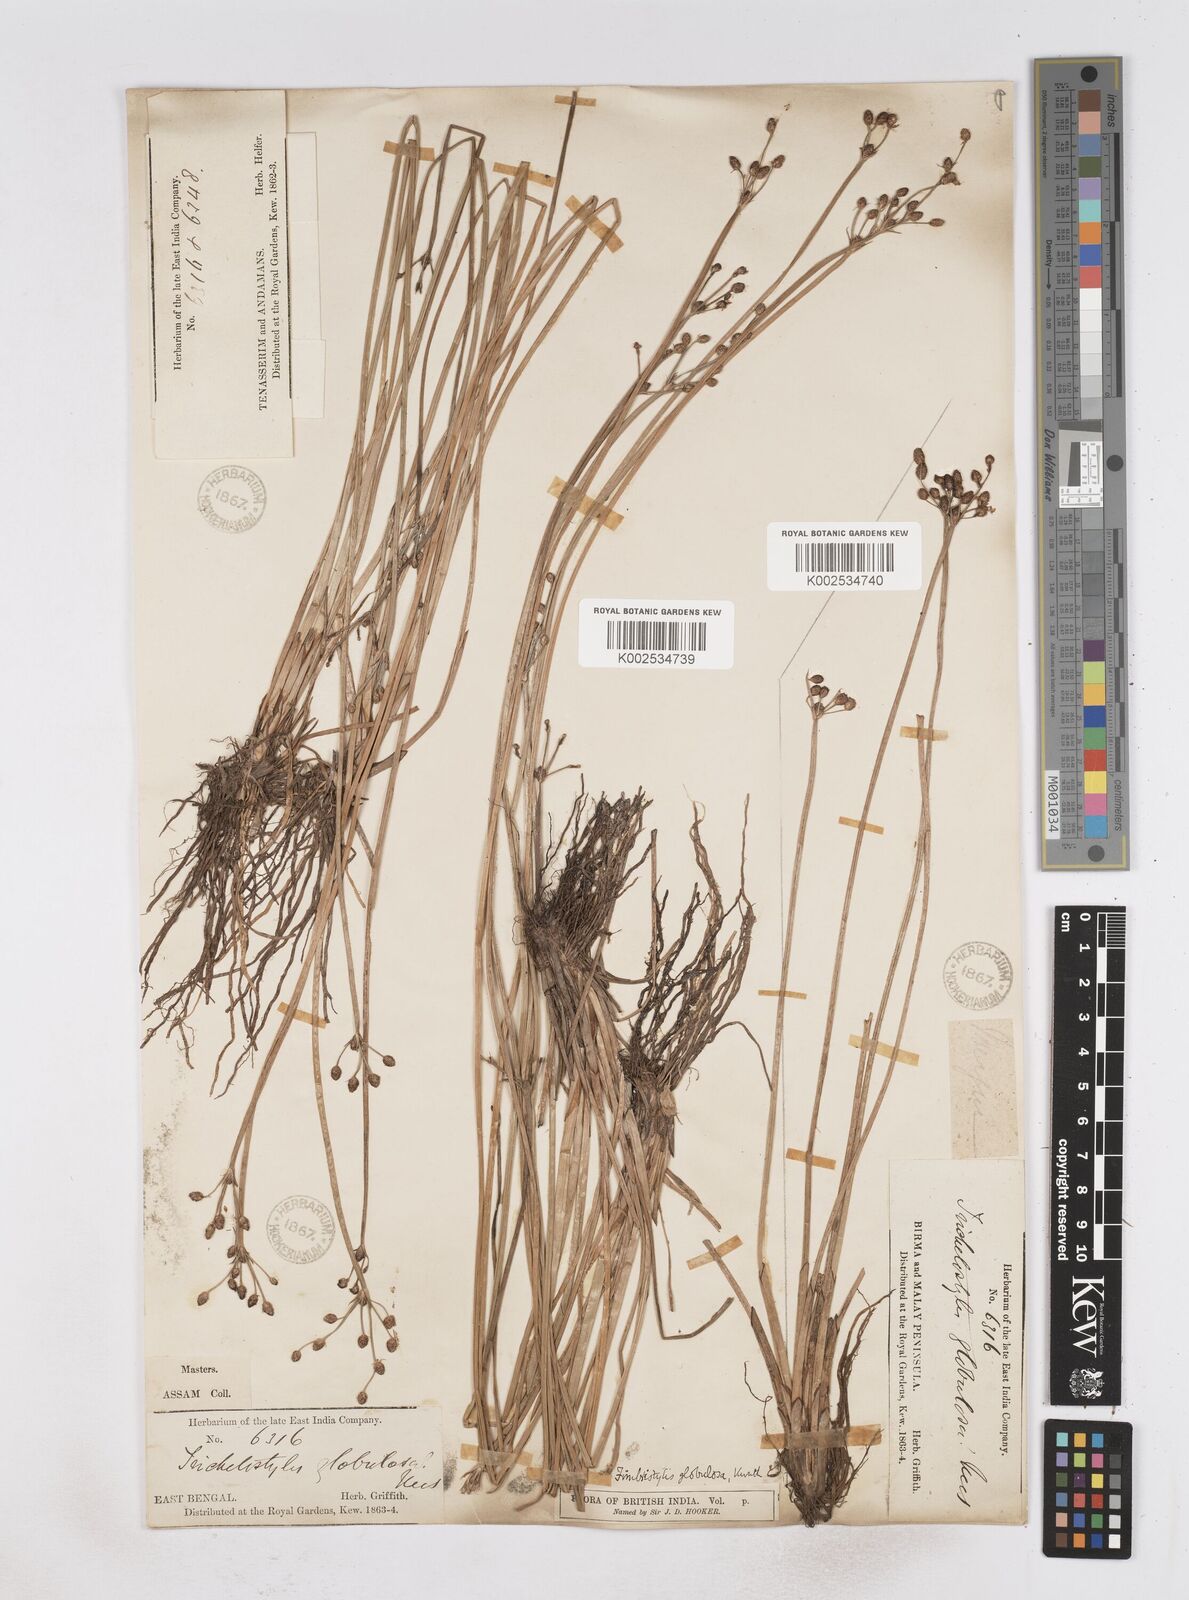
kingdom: Plantae
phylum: Tracheophyta
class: Liliopsida
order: Poales
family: Cyperaceae
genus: Fimbristylis
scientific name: Fimbristylis umbellaris
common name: Globular fimbristylis
